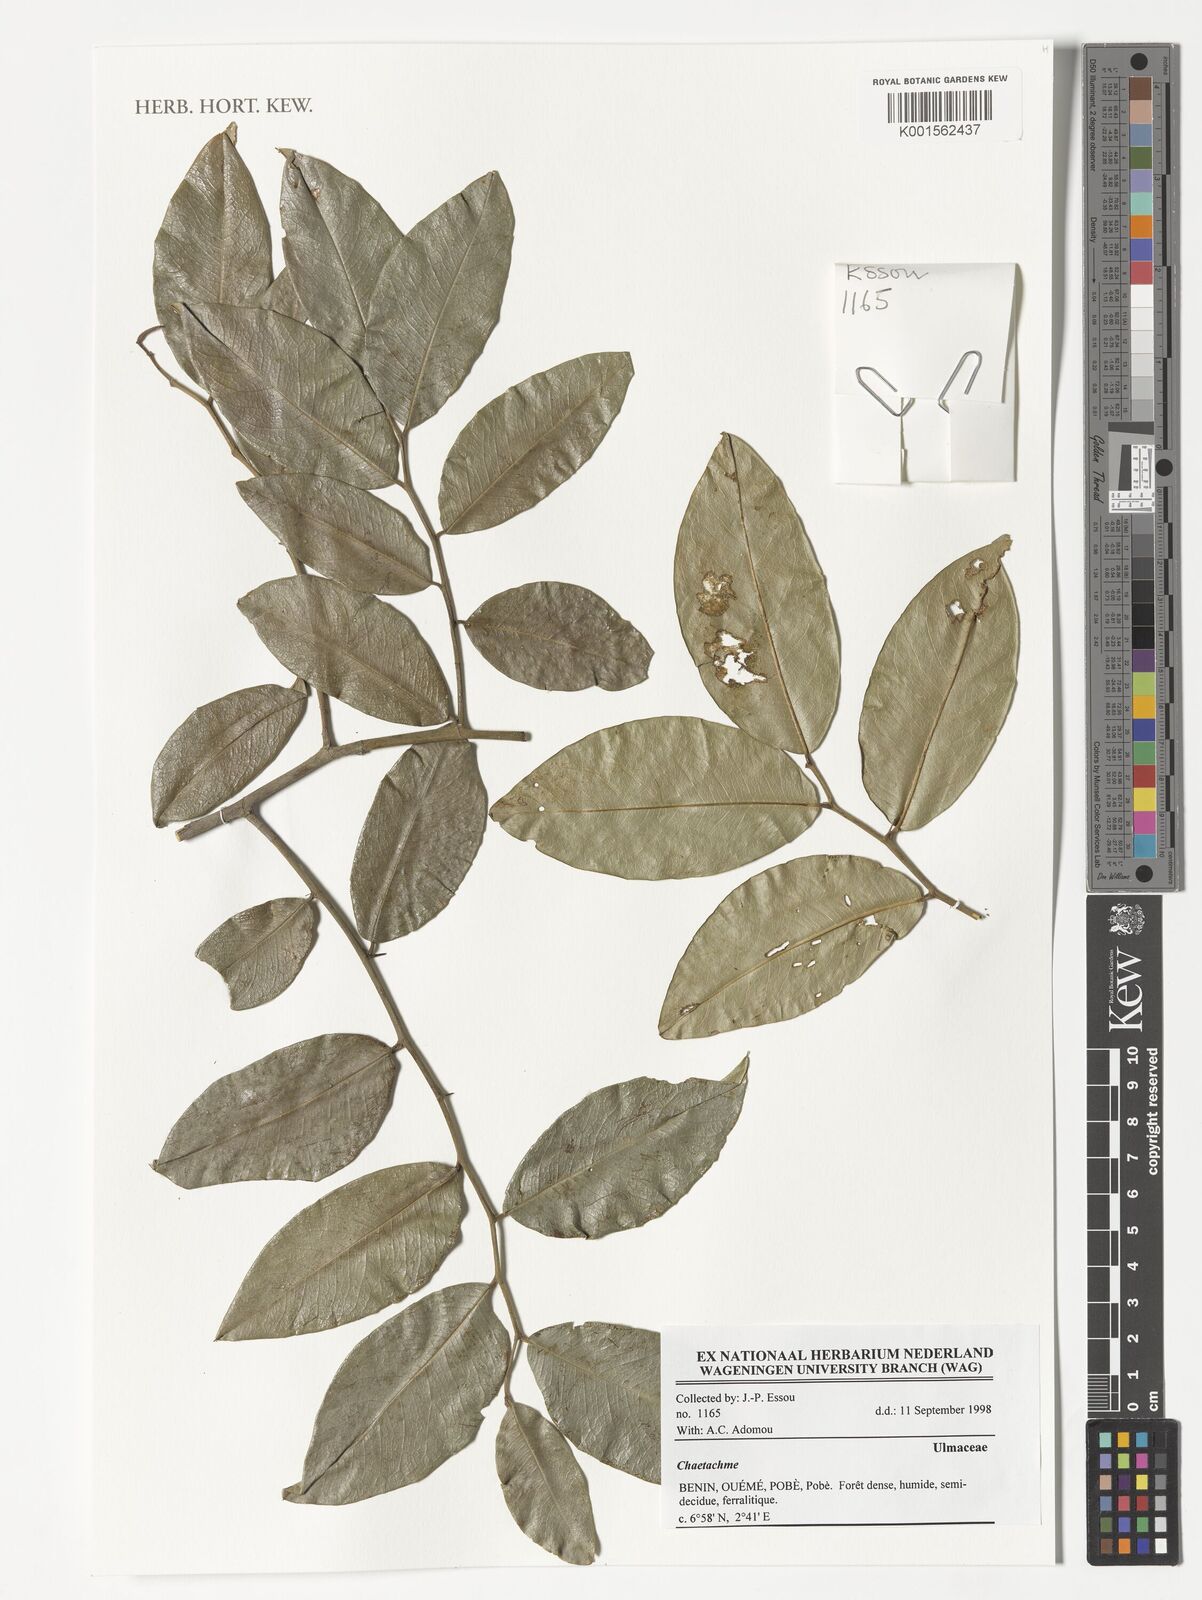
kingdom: Plantae
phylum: Tracheophyta
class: Magnoliopsida
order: Rosales
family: Cannabaceae
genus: Chaetachme
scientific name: Chaetachme
